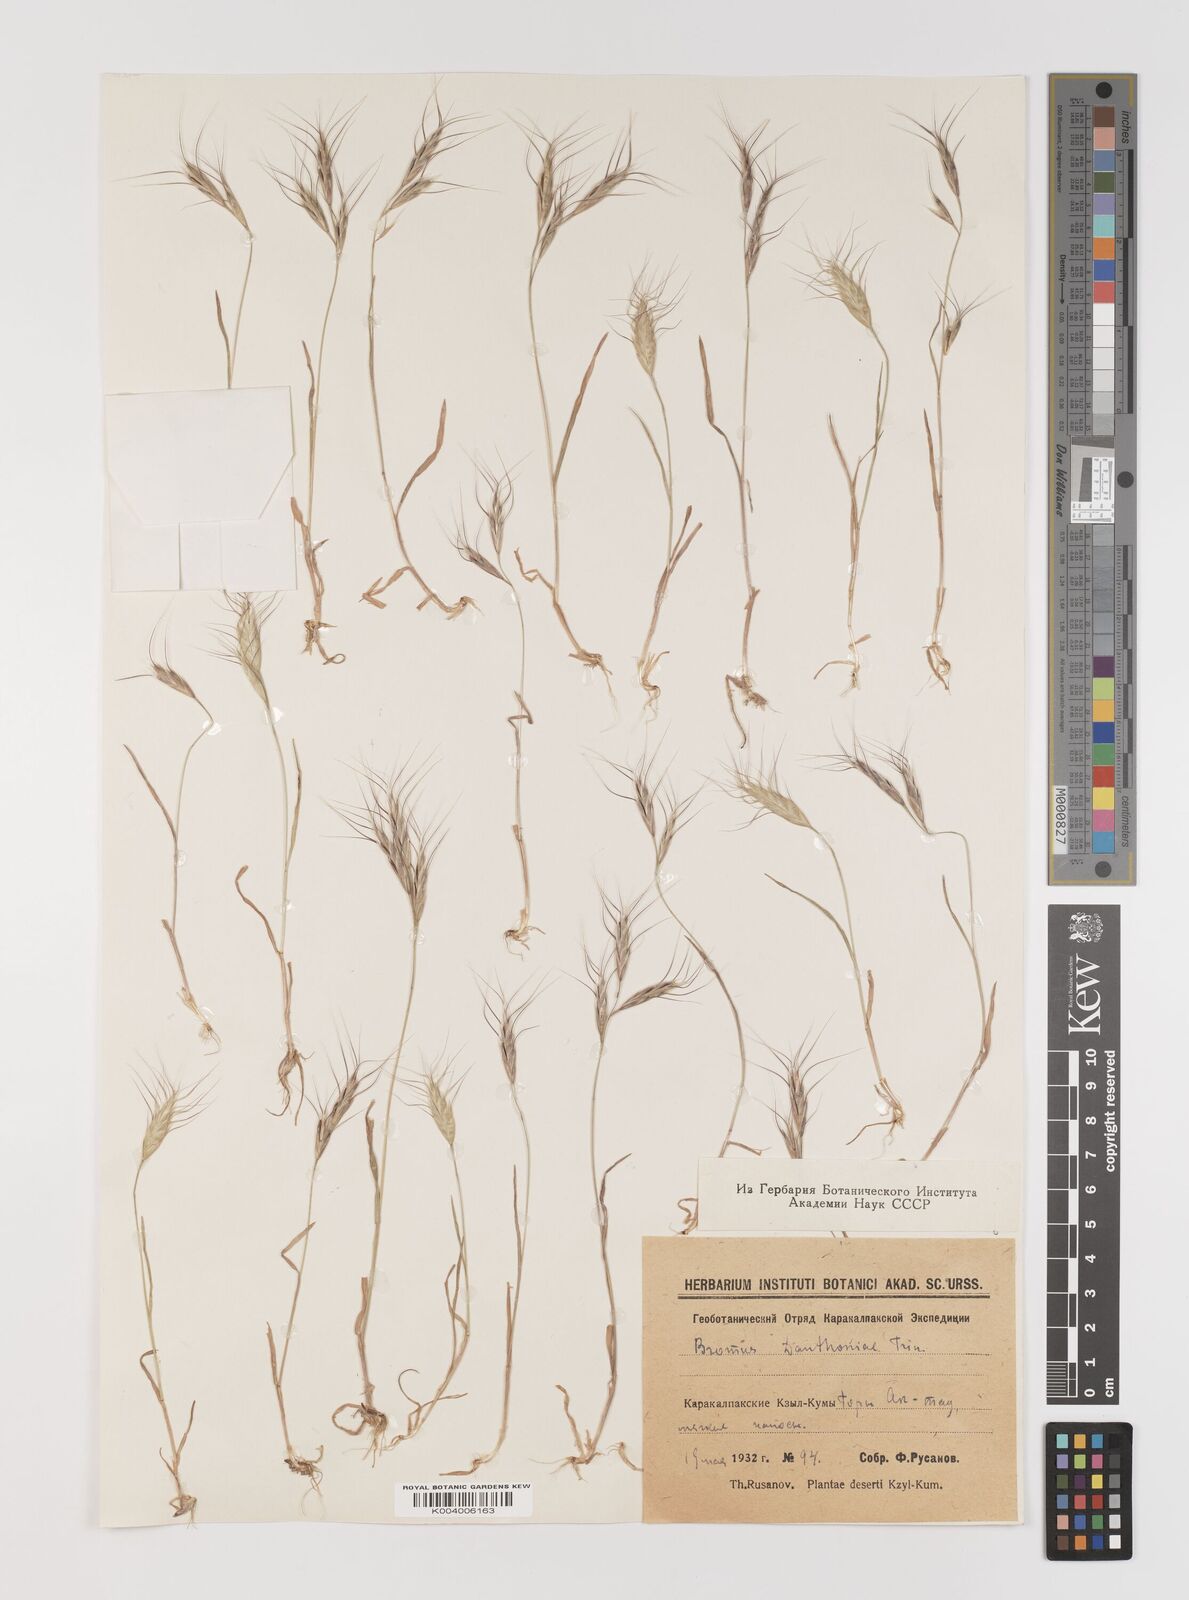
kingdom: Plantae
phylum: Tracheophyta
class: Liliopsida
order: Poales
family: Poaceae
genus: Bromus
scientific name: Bromus danthoniae
